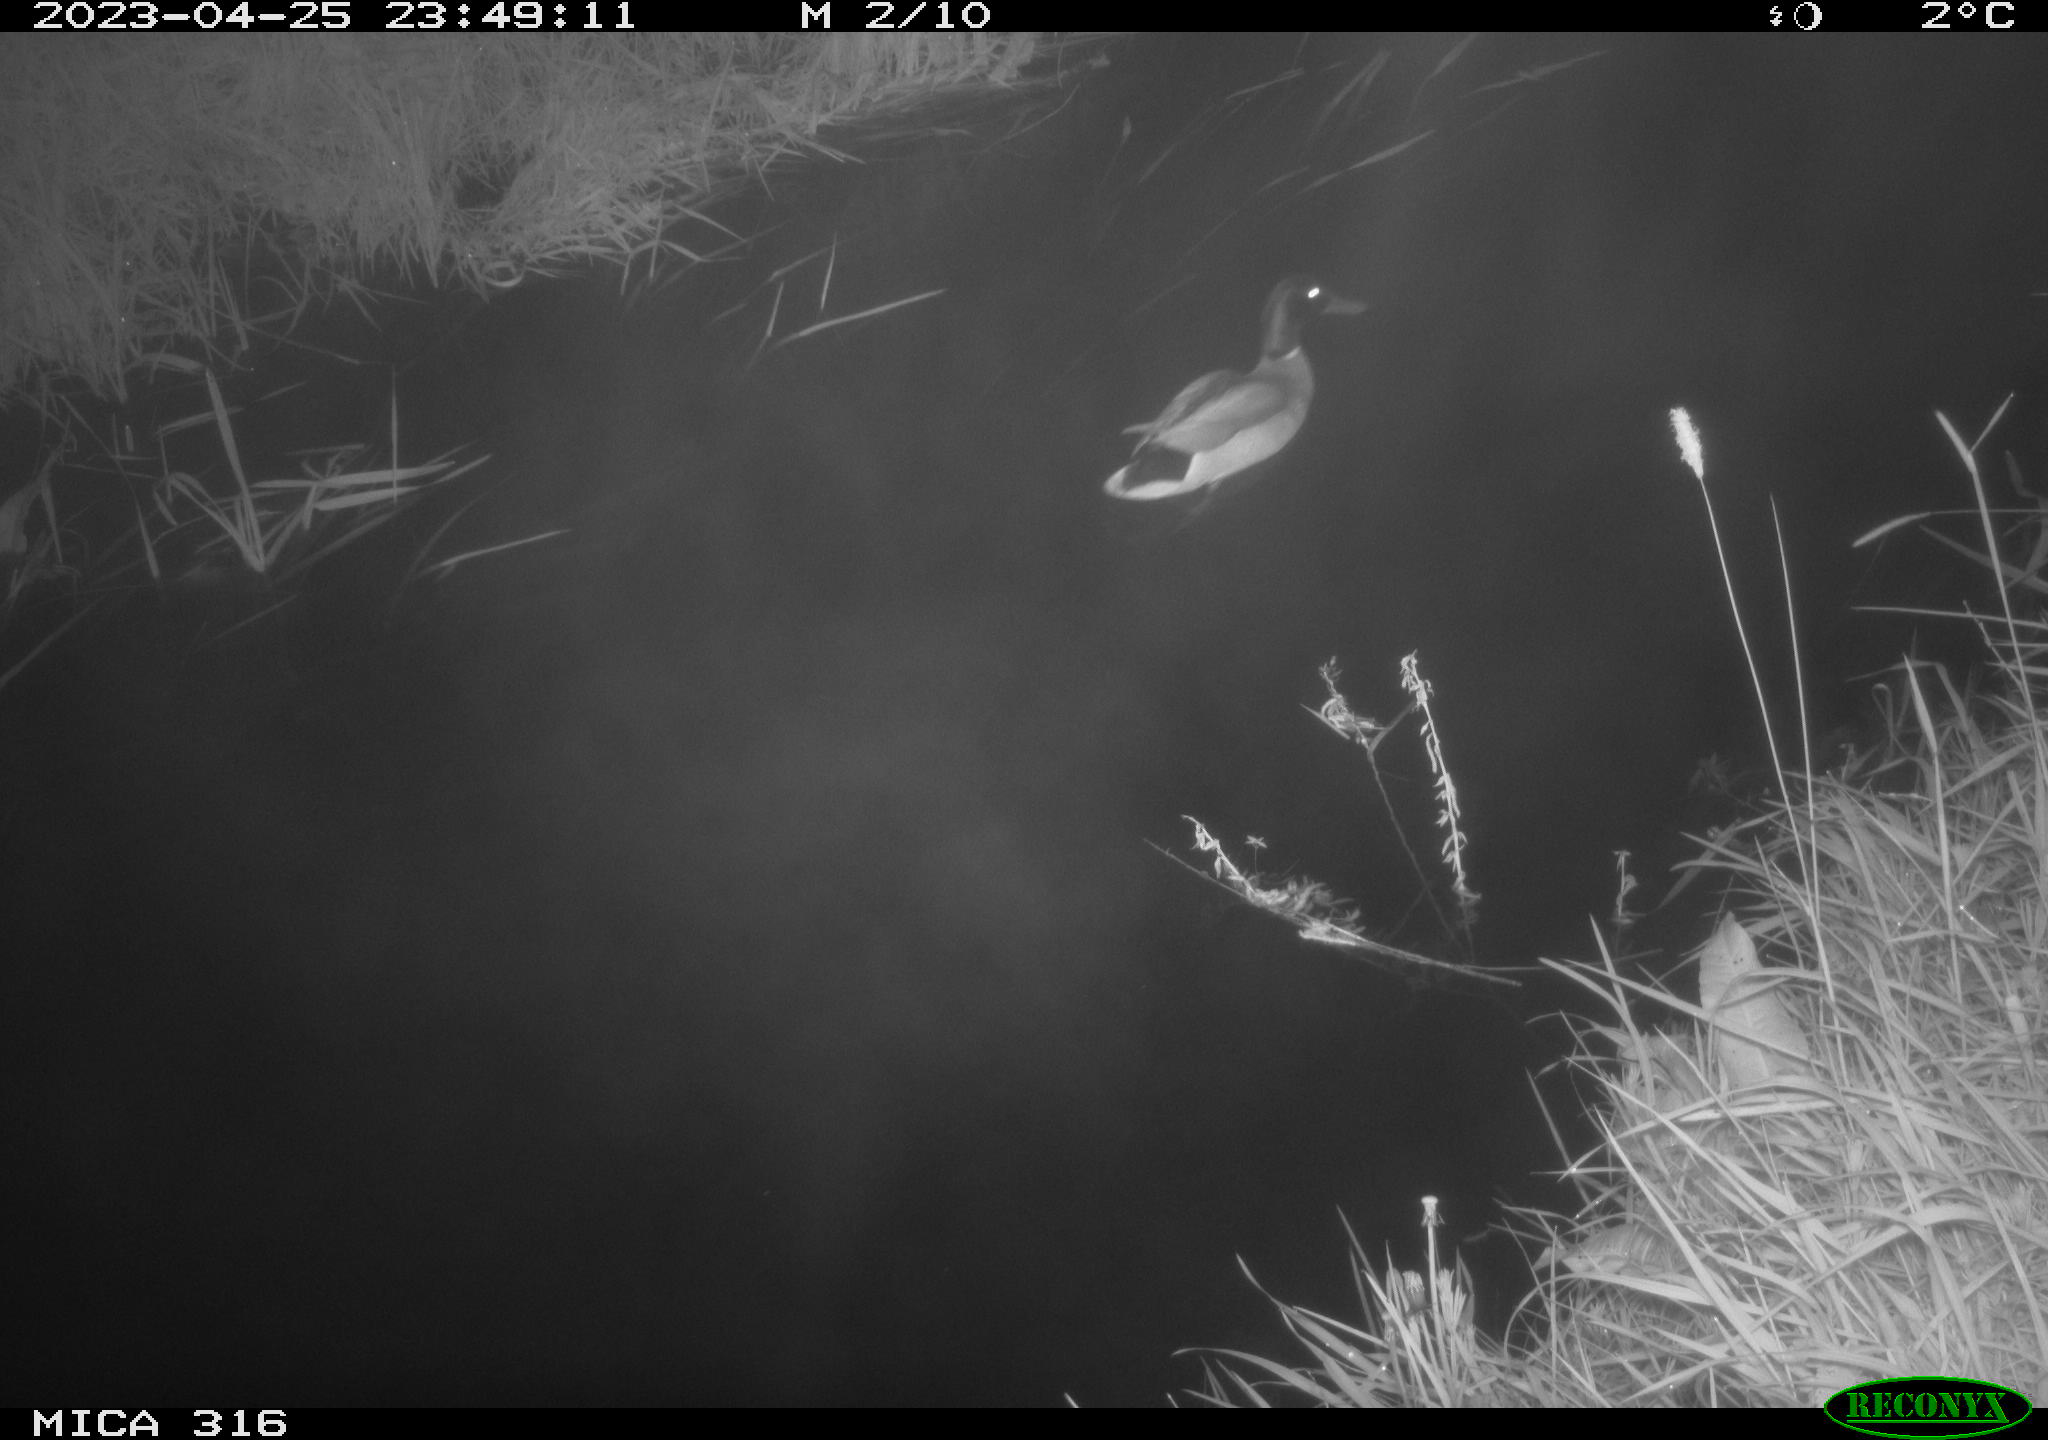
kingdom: Animalia
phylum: Chordata
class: Aves
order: Anseriformes
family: Anatidae
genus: Anas
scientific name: Anas
